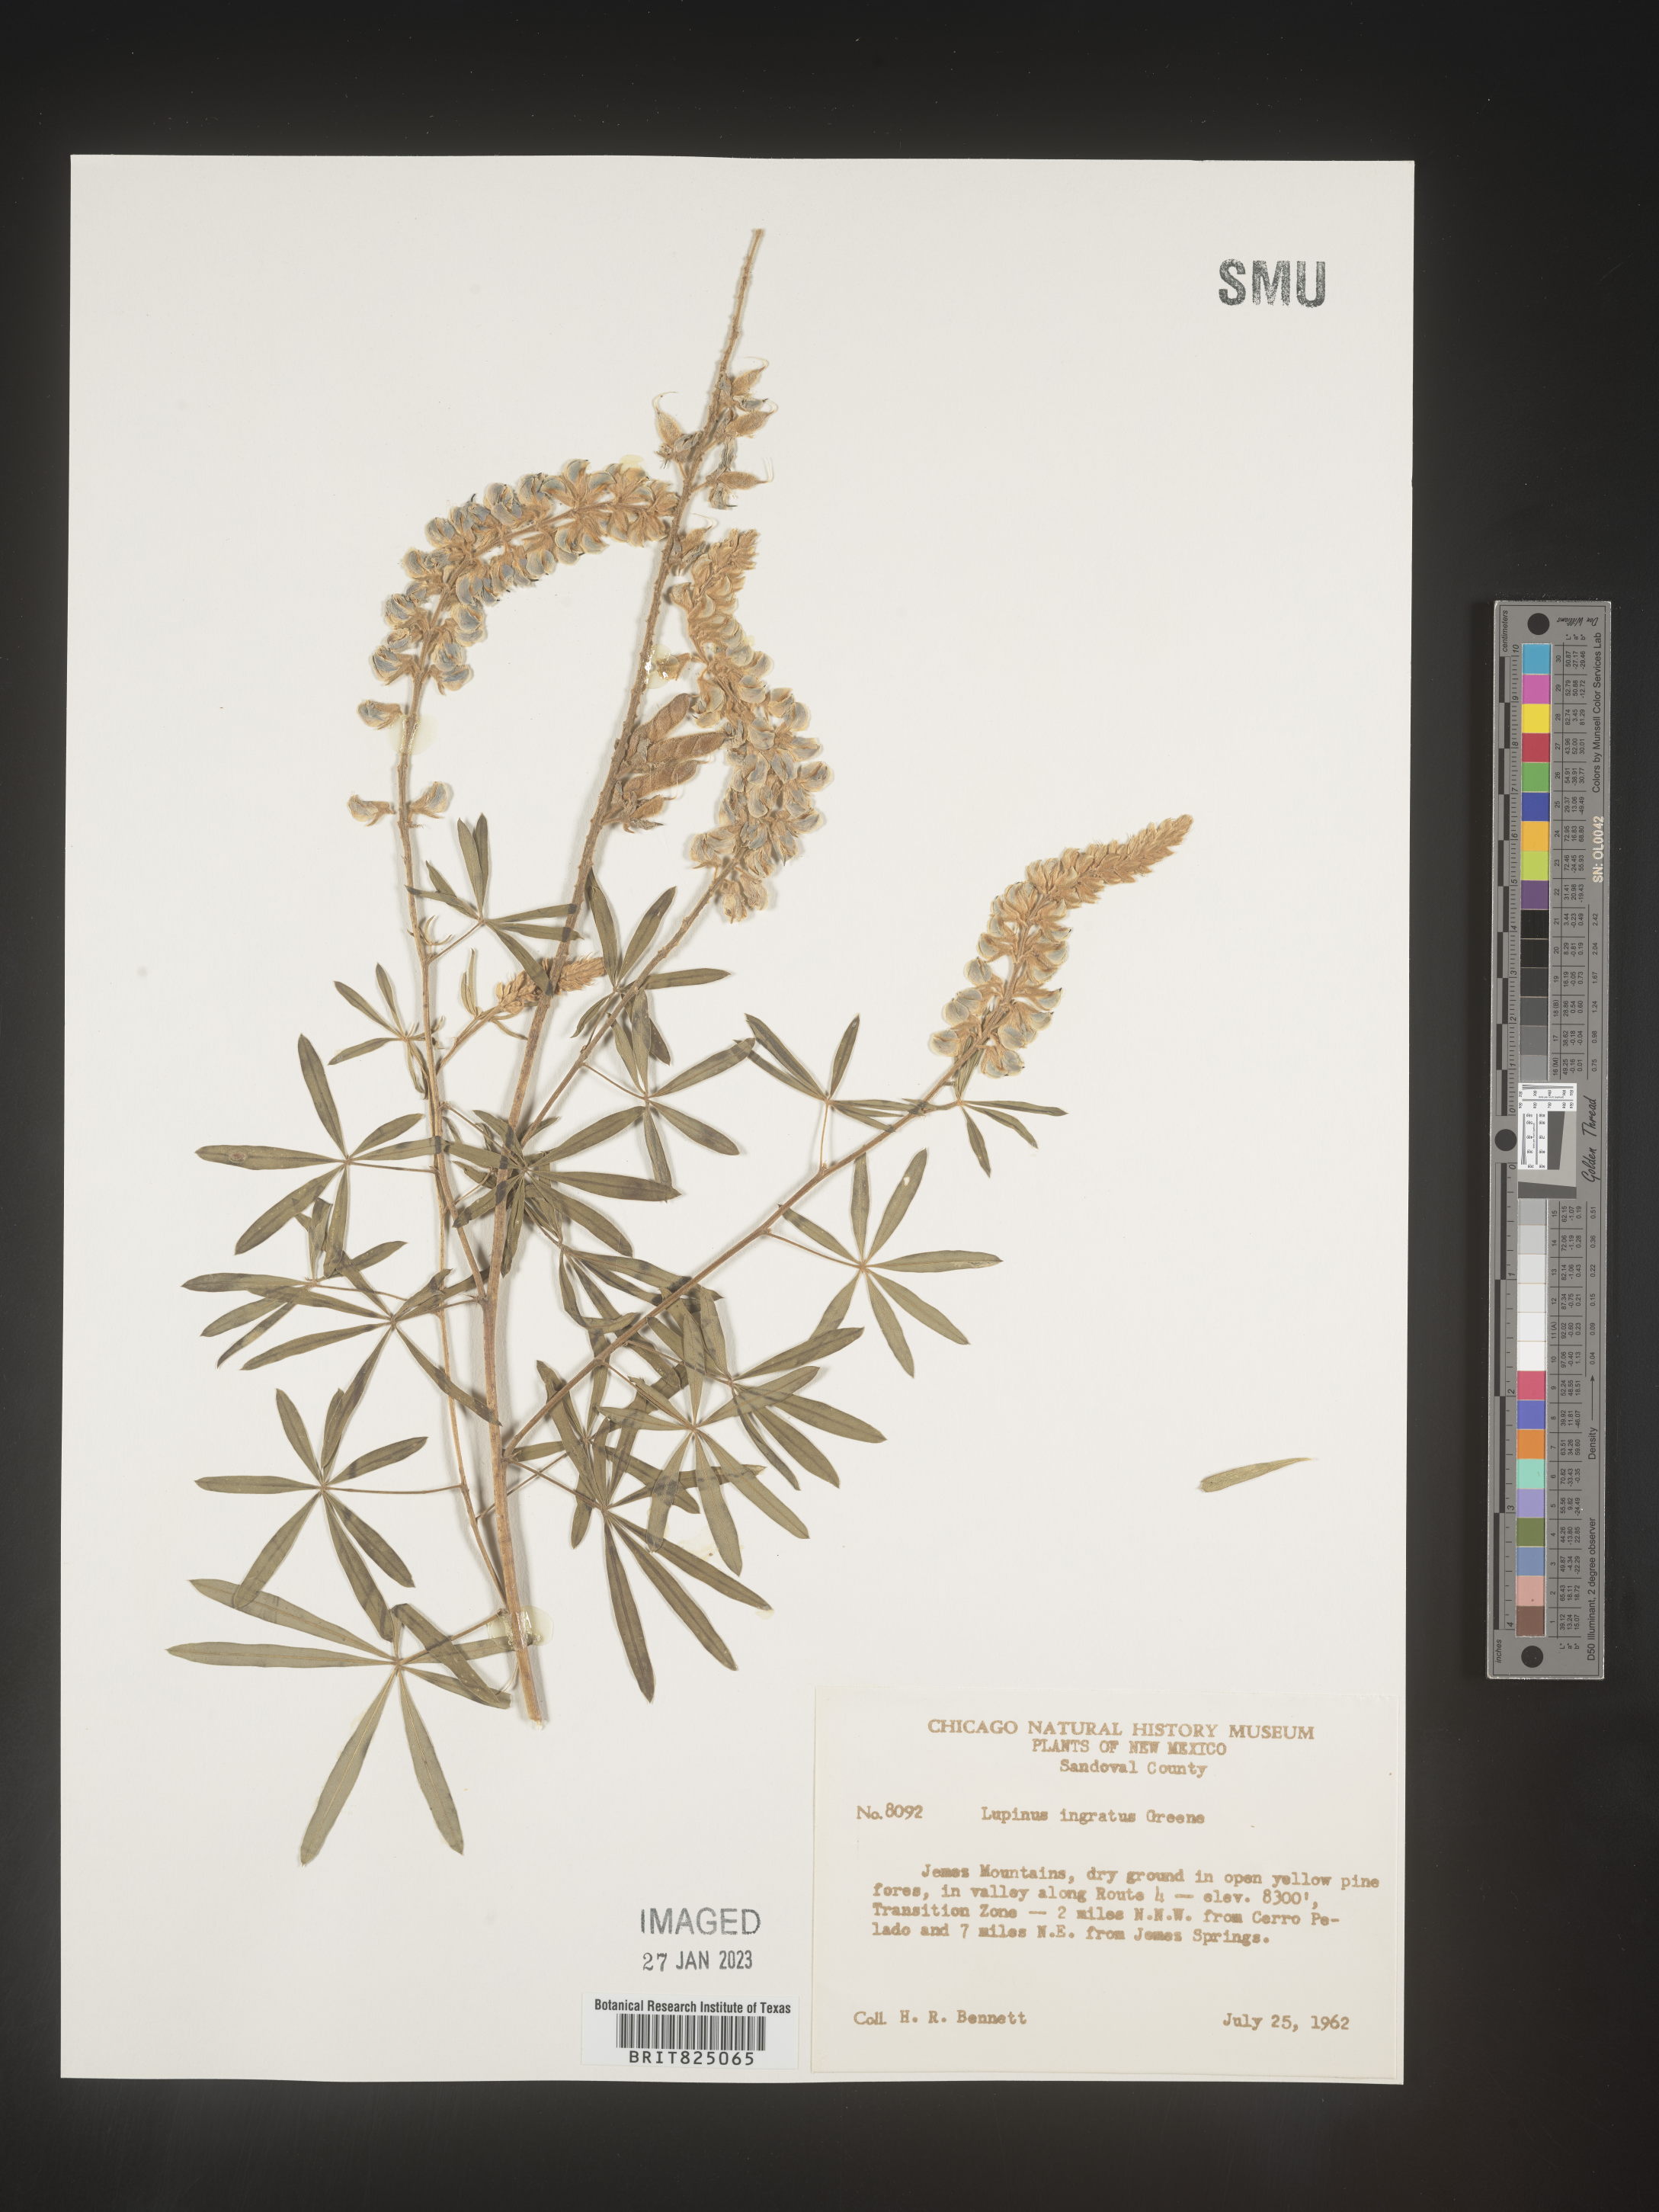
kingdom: Plantae
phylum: Tracheophyta
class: Magnoliopsida
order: Fabales
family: Fabaceae
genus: Lupinus
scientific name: Lupinus
